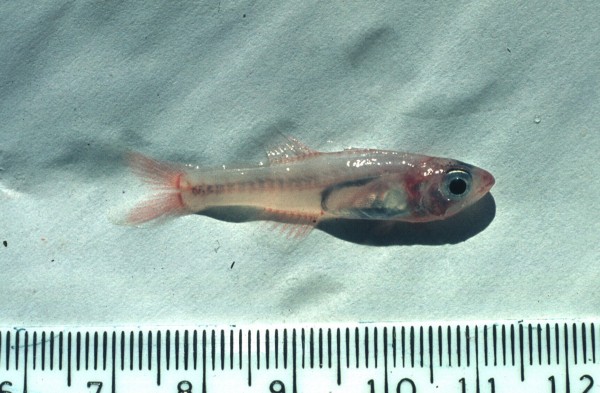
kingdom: Animalia
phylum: Chordata
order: Perciformes
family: Apogonidae
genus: Gymnapogon
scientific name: Gymnapogon africanus
